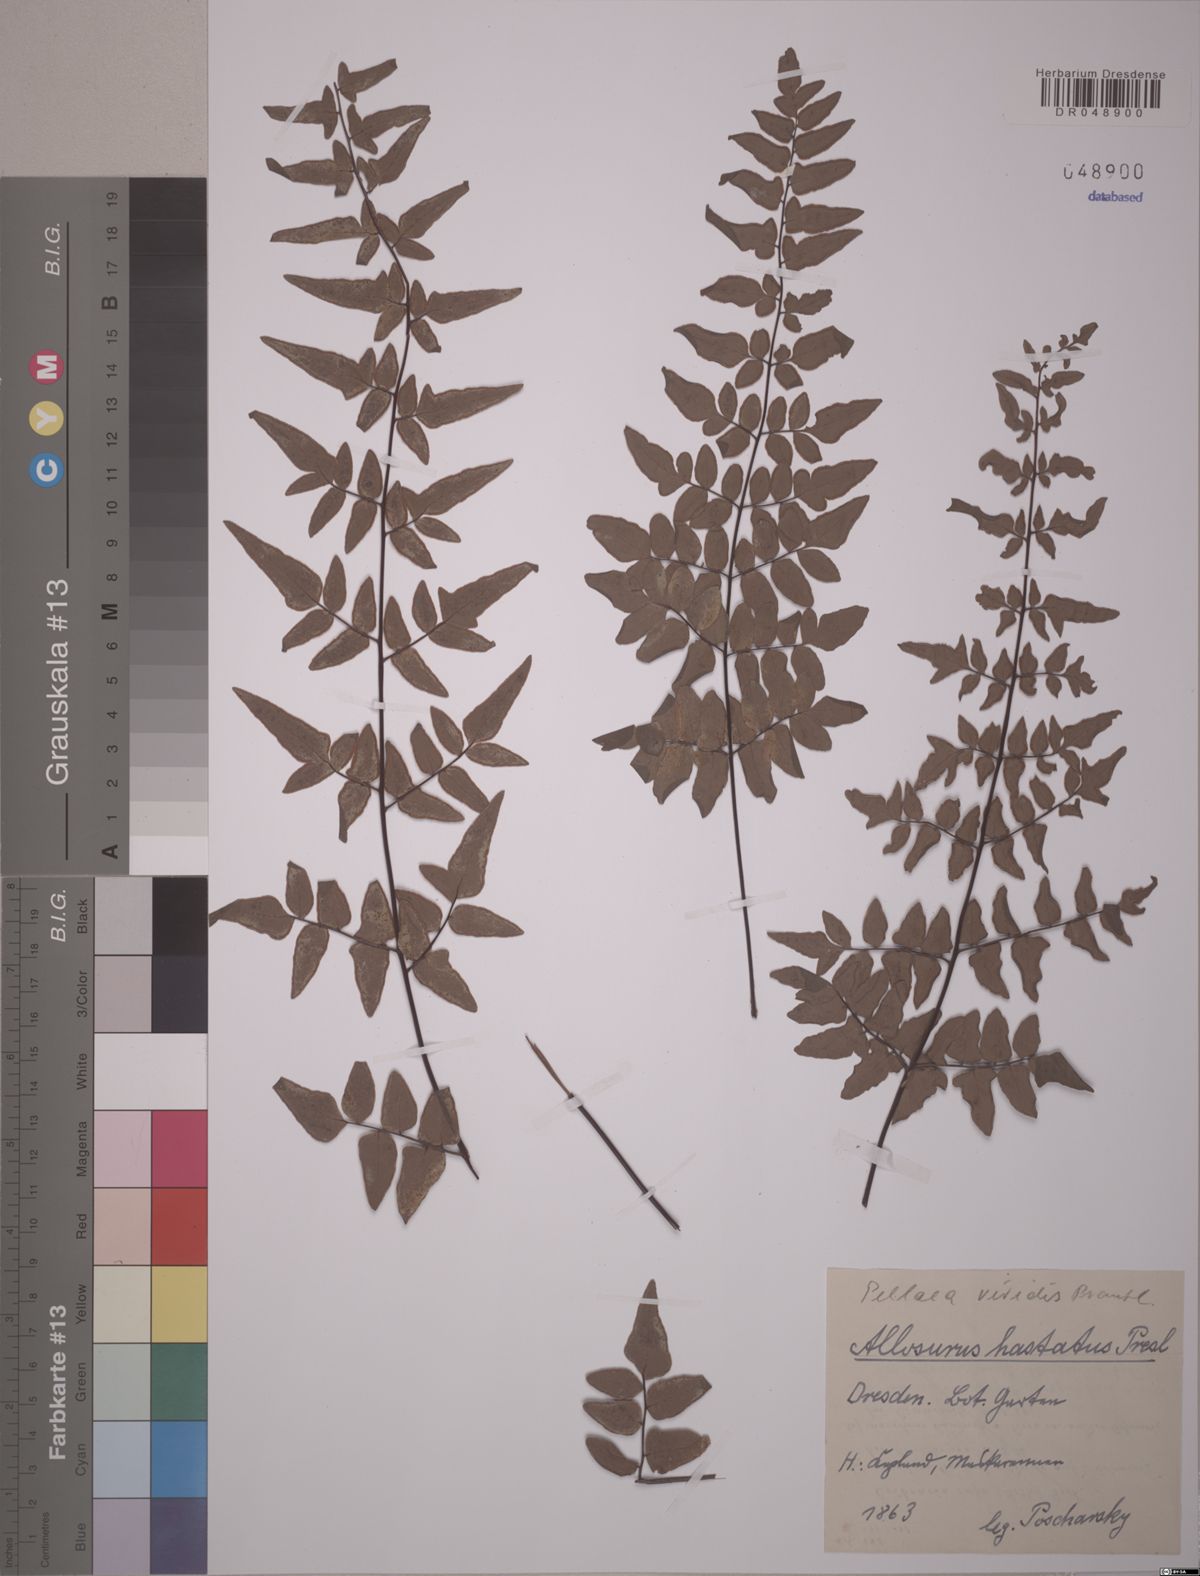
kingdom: Plantae
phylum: Tracheophyta
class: Polypodiopsida
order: Polypodiales
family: Pteridaceae
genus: Cheilanthes
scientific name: Cheilanthes viridis
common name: Green cliffbrake
